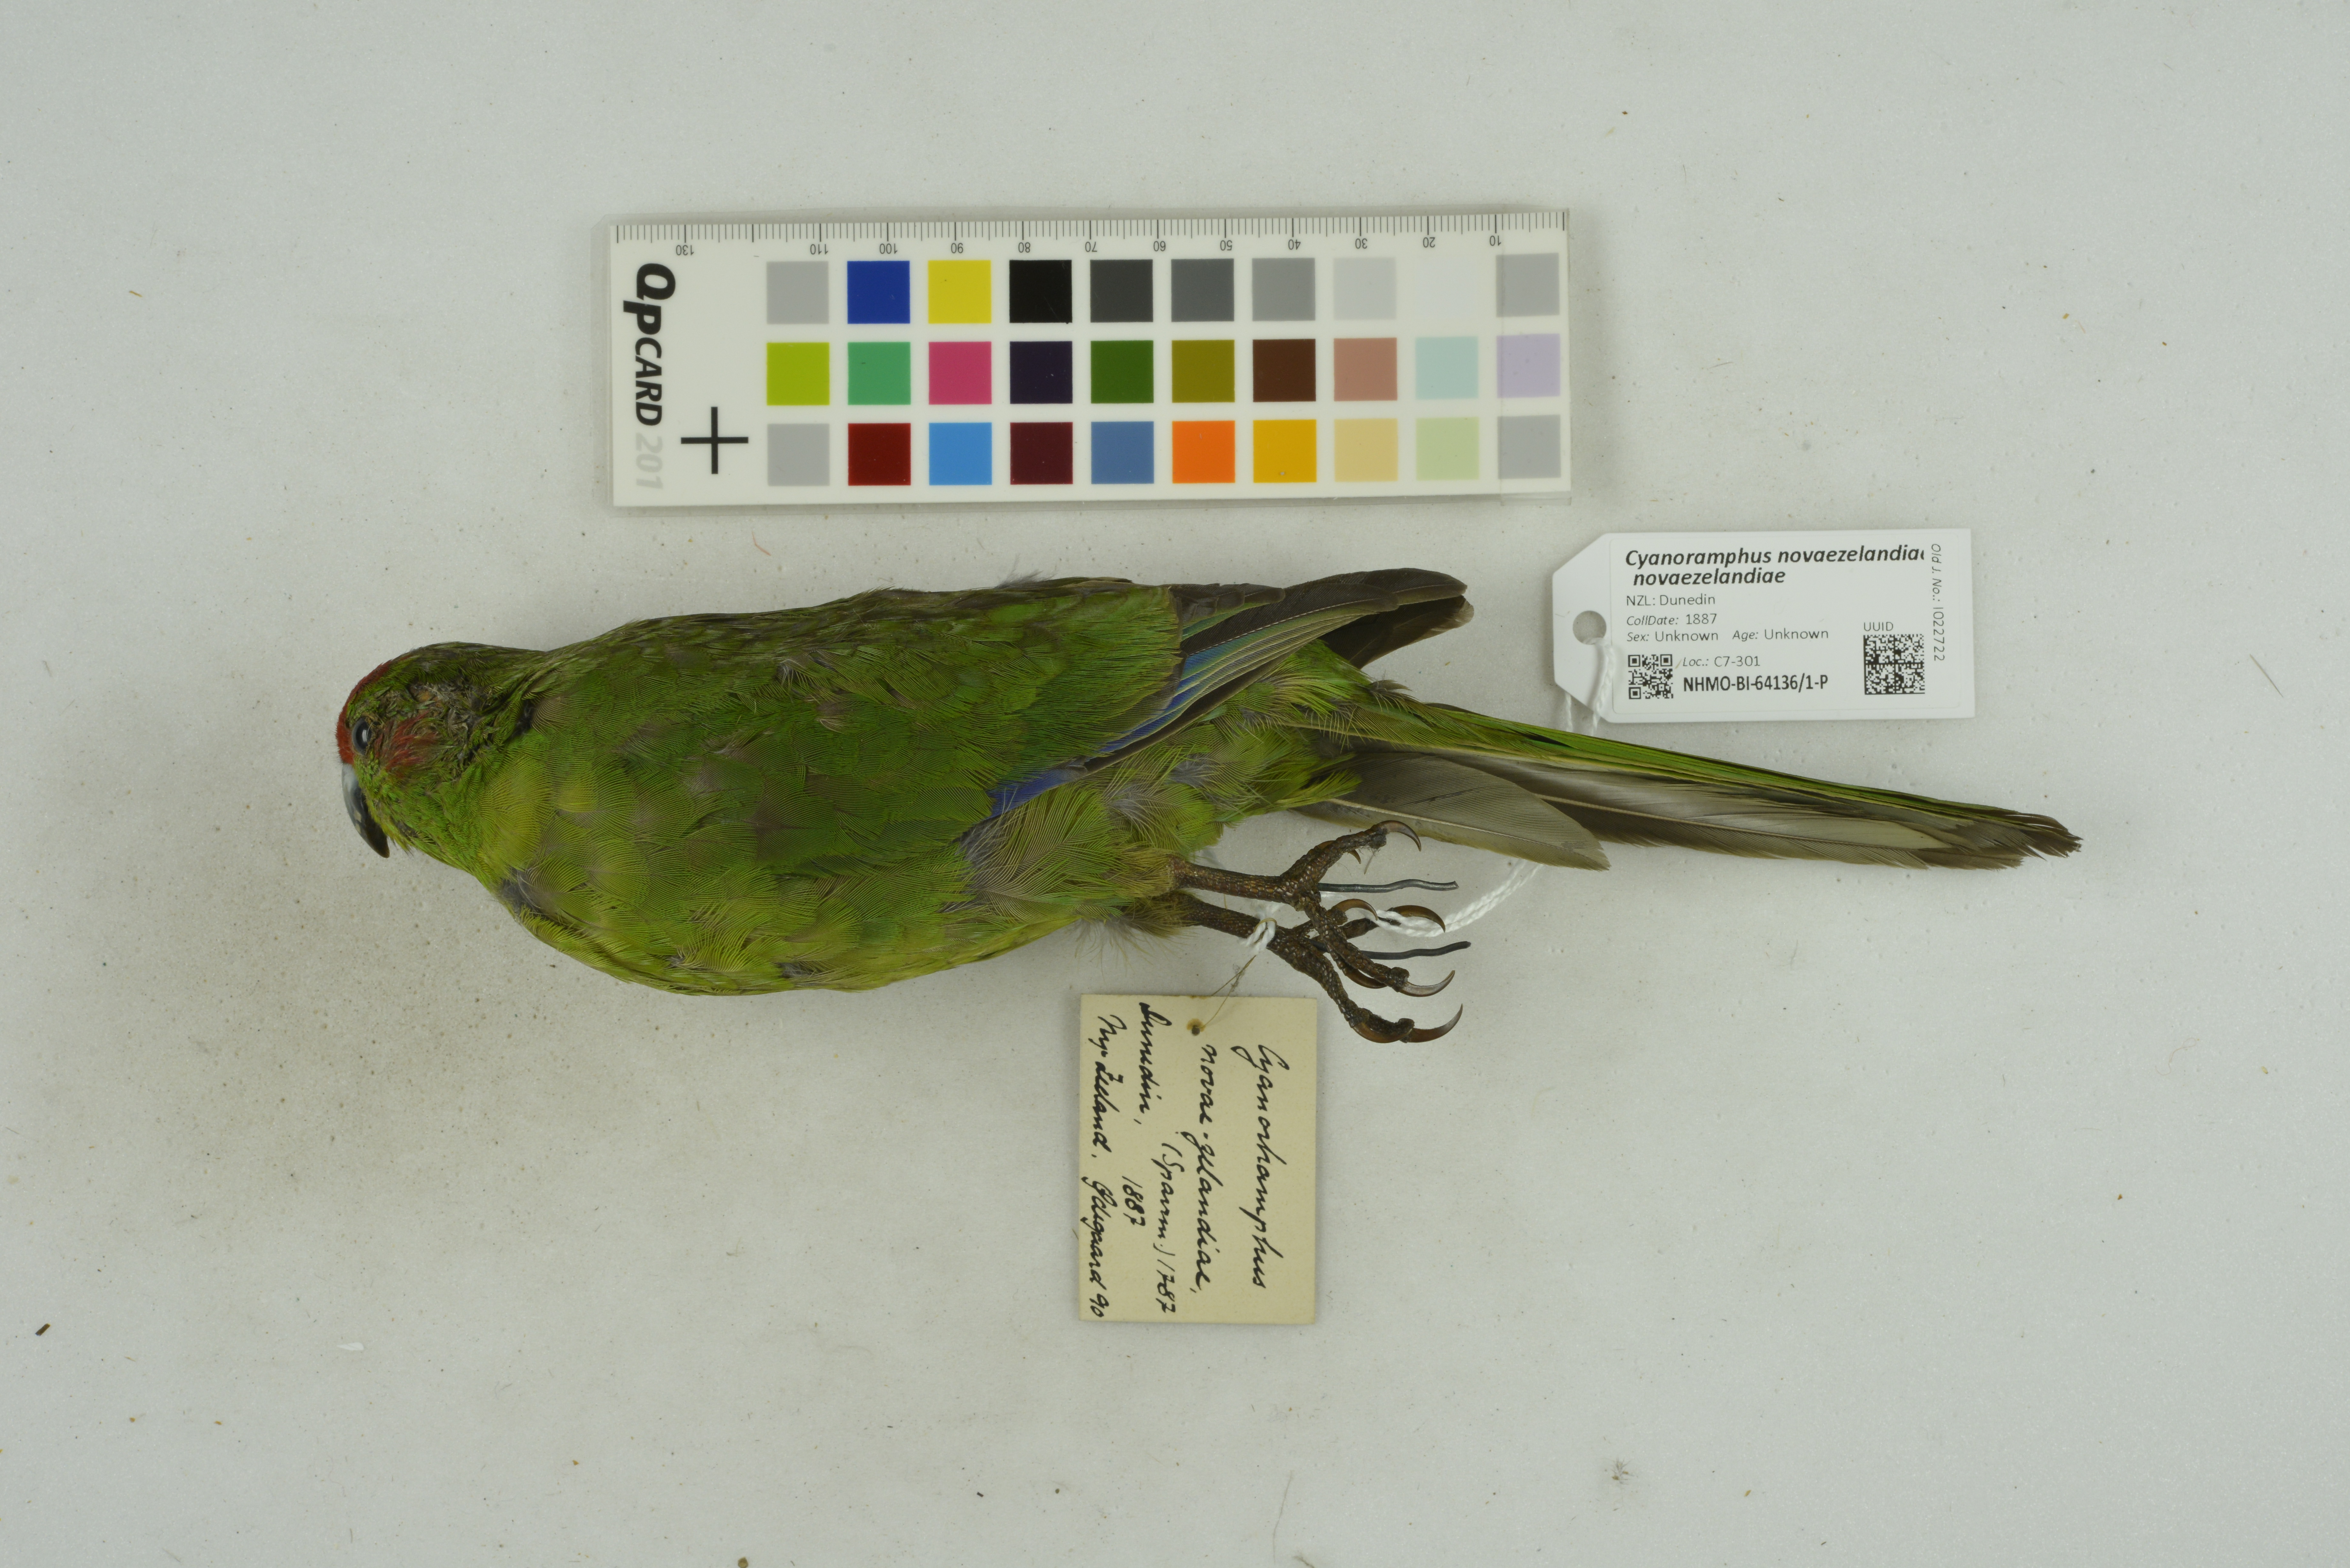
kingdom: Animalia
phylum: Chordata
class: Aves
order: Psittaciformes
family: Psittacidae
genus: Cyanoramphus
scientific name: Cyanoramphus novaezelandiae
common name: Red-fronted parakeet
